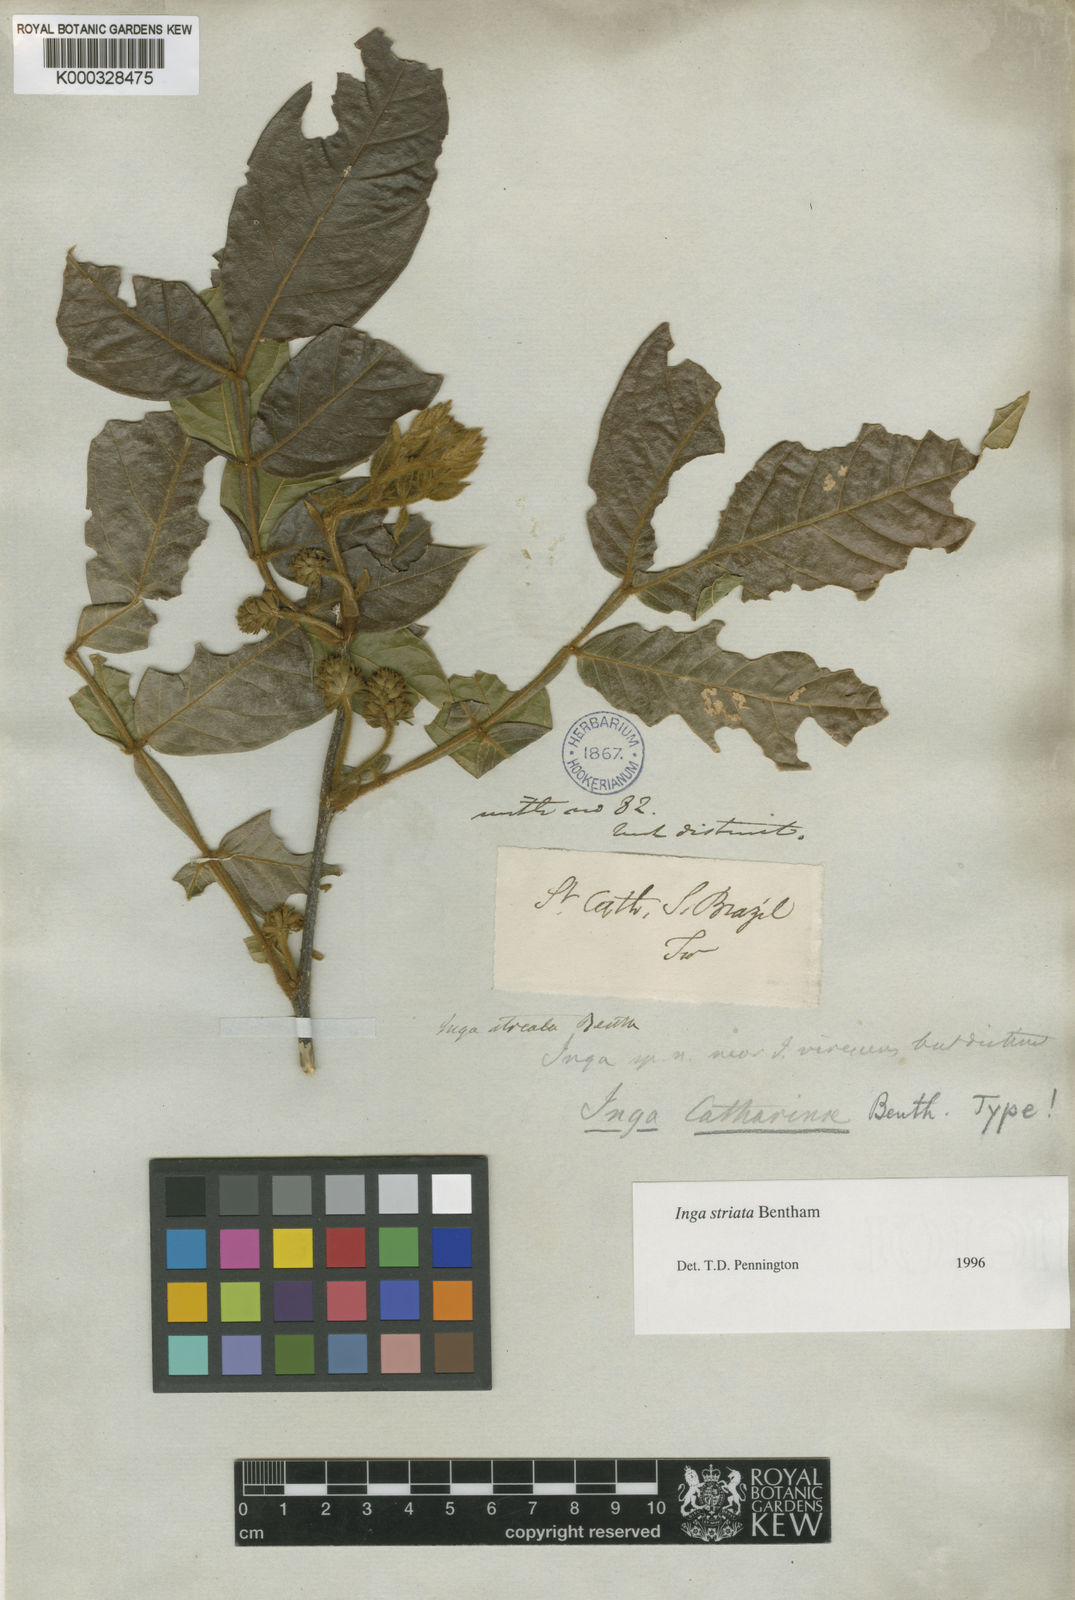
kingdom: Plantae
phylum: Tracheophyta
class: Magnoliopsida
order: Fabales
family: Fabaceae
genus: Inga
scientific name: Inga striata
